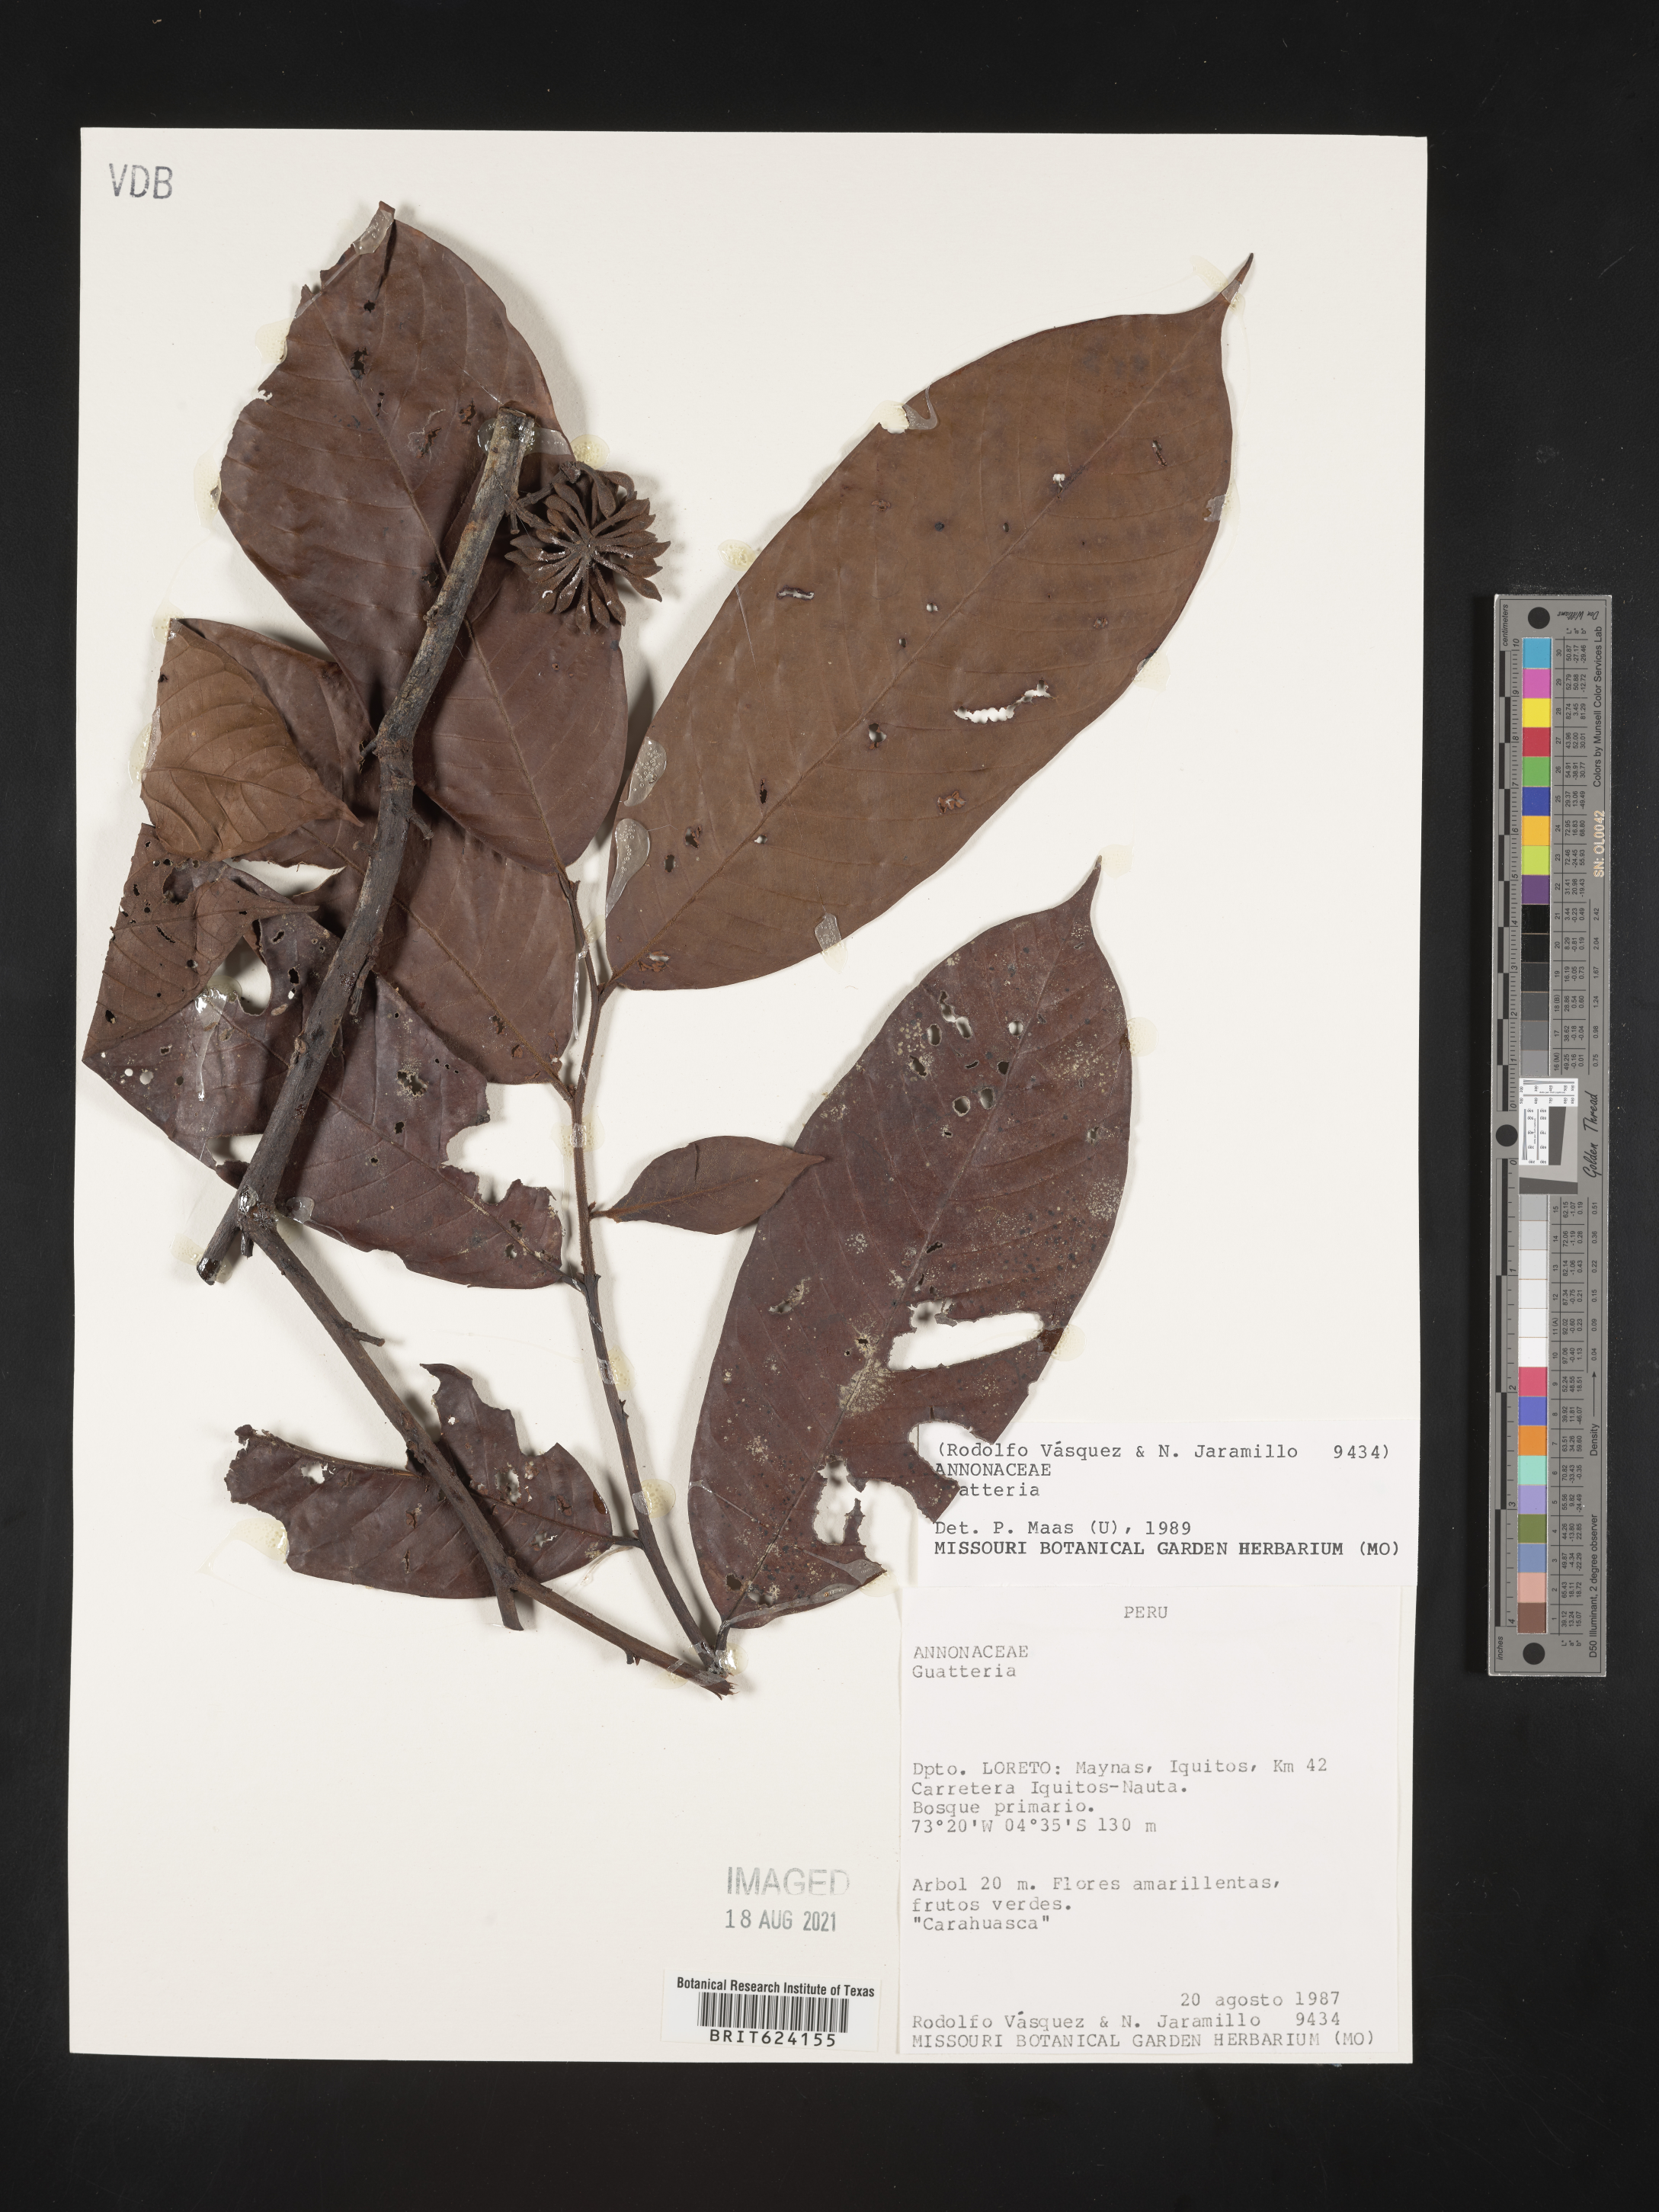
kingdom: Plantae
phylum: Tracheophyta
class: Magnoliopsida
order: Magnoliales
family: Annonaceae
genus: Guatteria
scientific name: Guatteria
